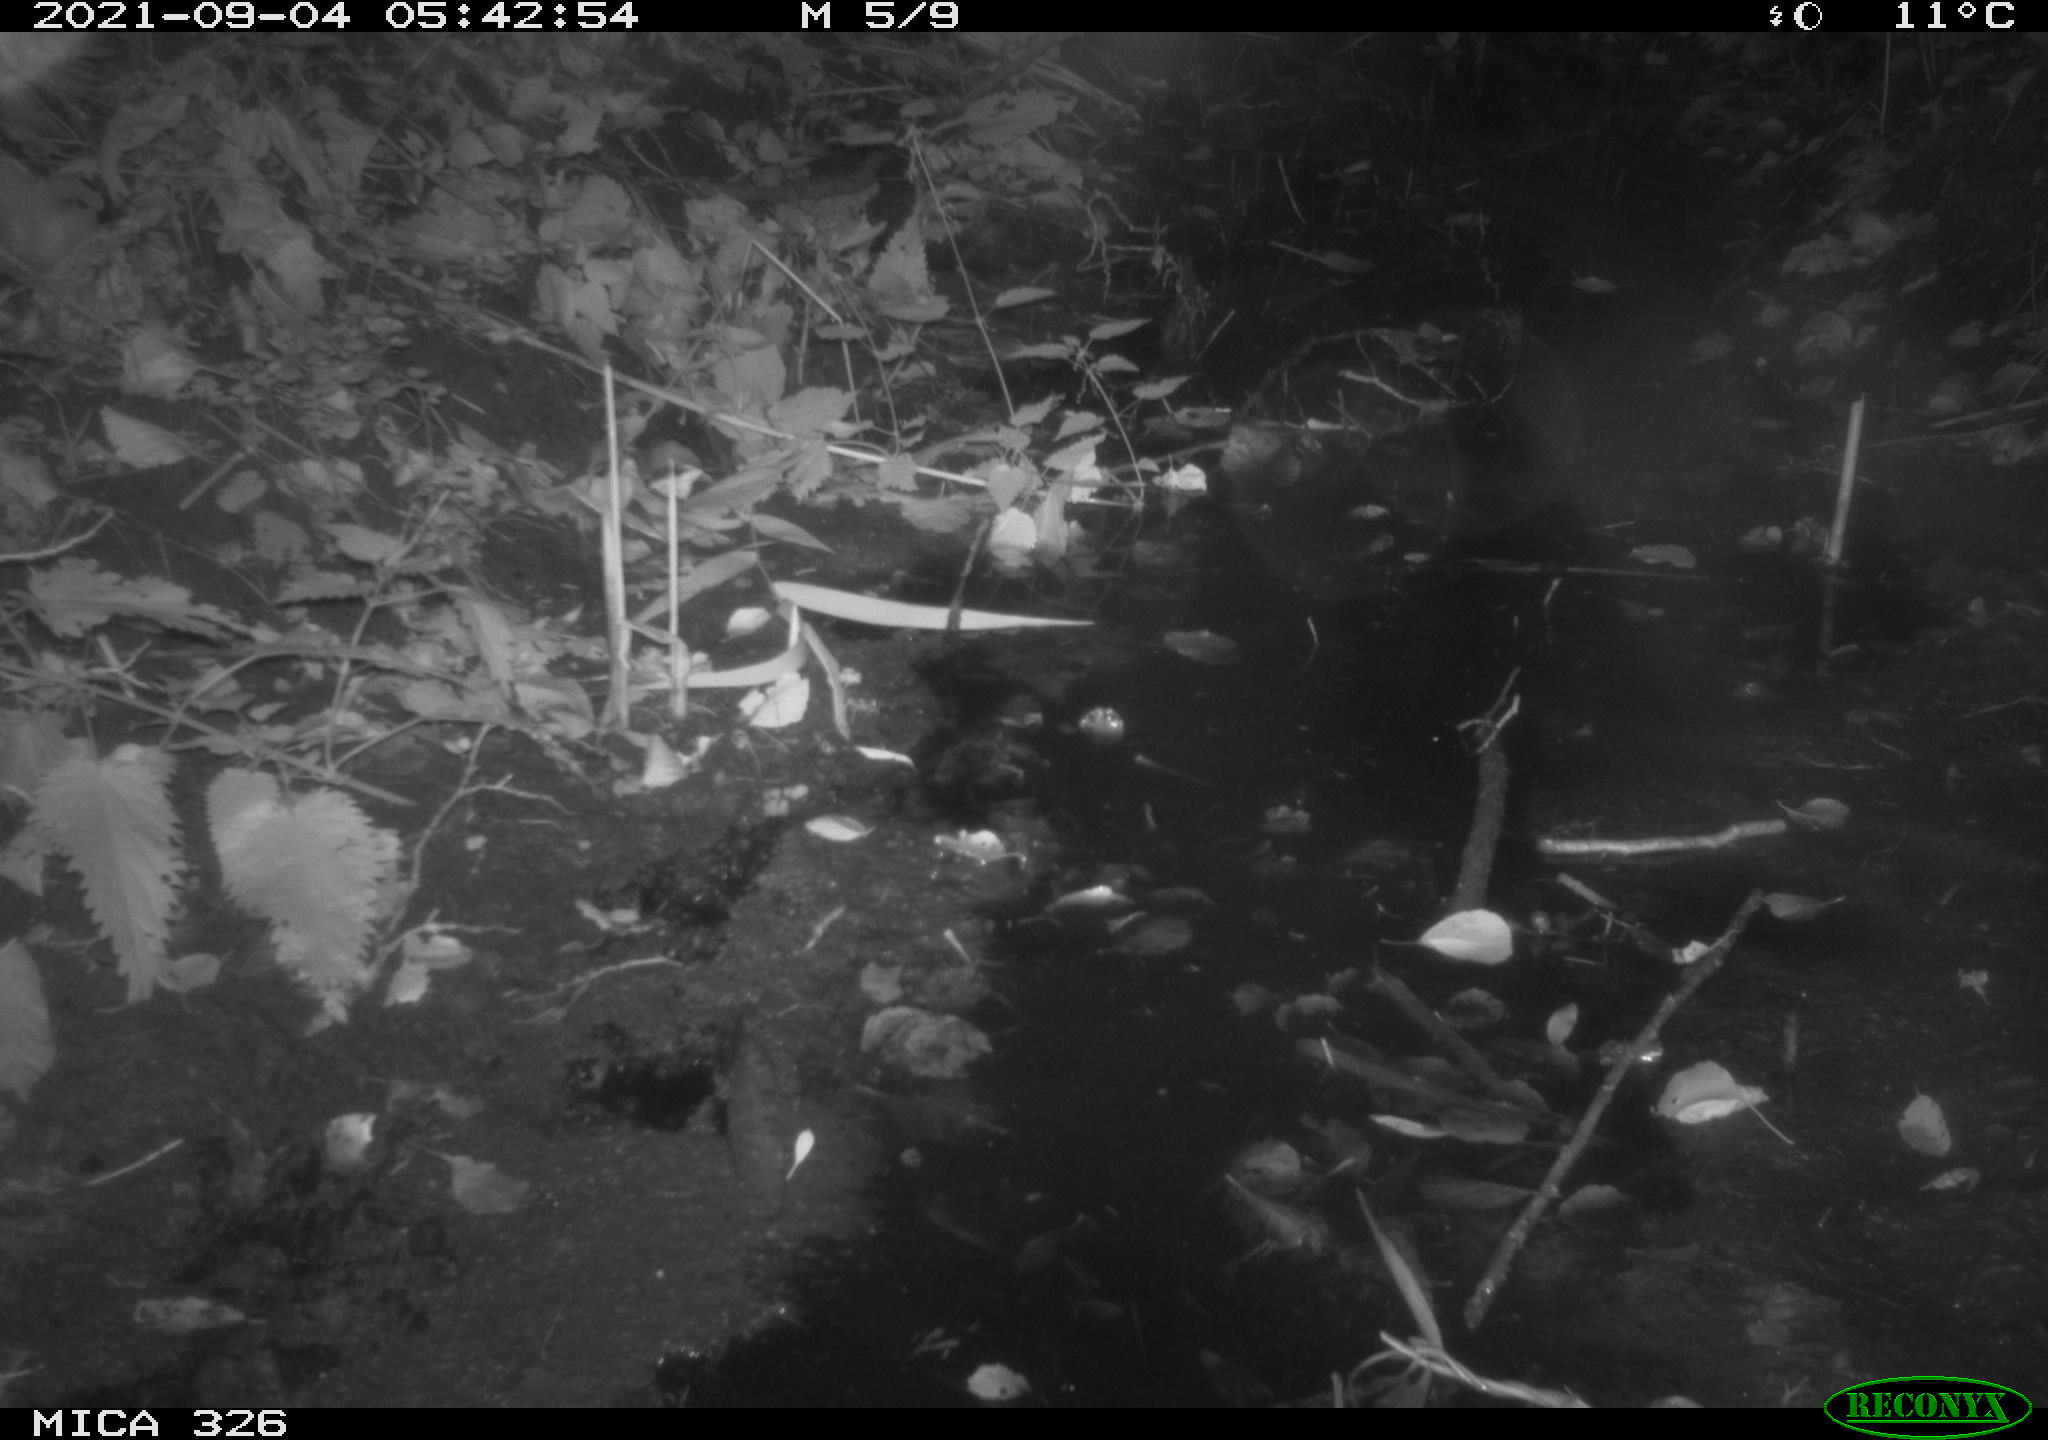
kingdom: Animalia
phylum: Chordata
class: Mammalia
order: Rodentia
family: Muridae
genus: Rattus
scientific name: Rattus norvegicus
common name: Brown rat
